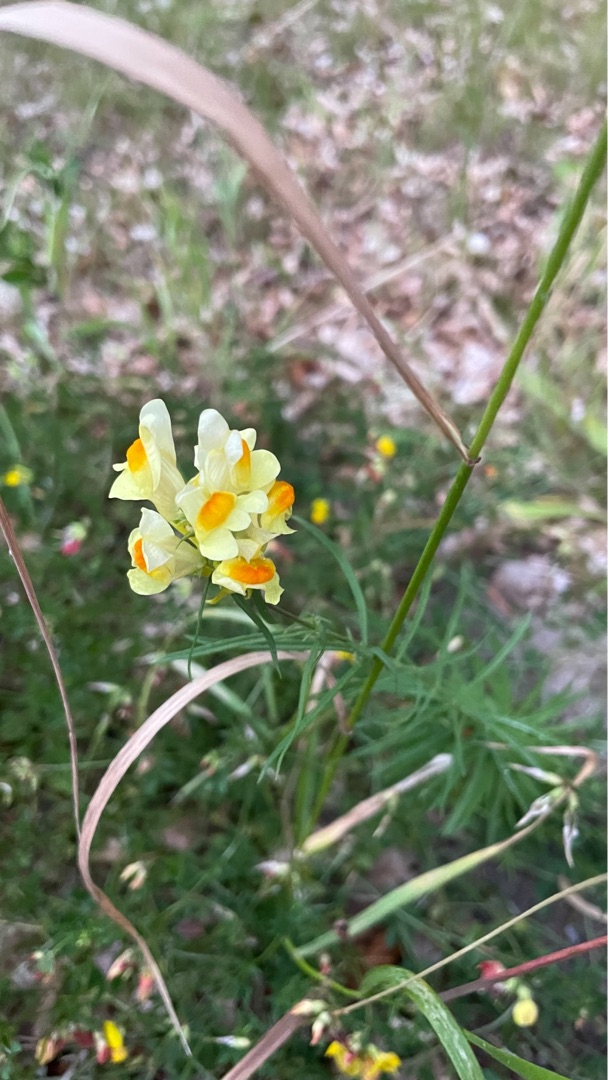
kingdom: Plantae
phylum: Tracheophyta
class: Magnoliopsida
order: Lamiales
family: Plantaginaceae
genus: Linaria
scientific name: Linaria vulgaris
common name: Almindelig torskemund
